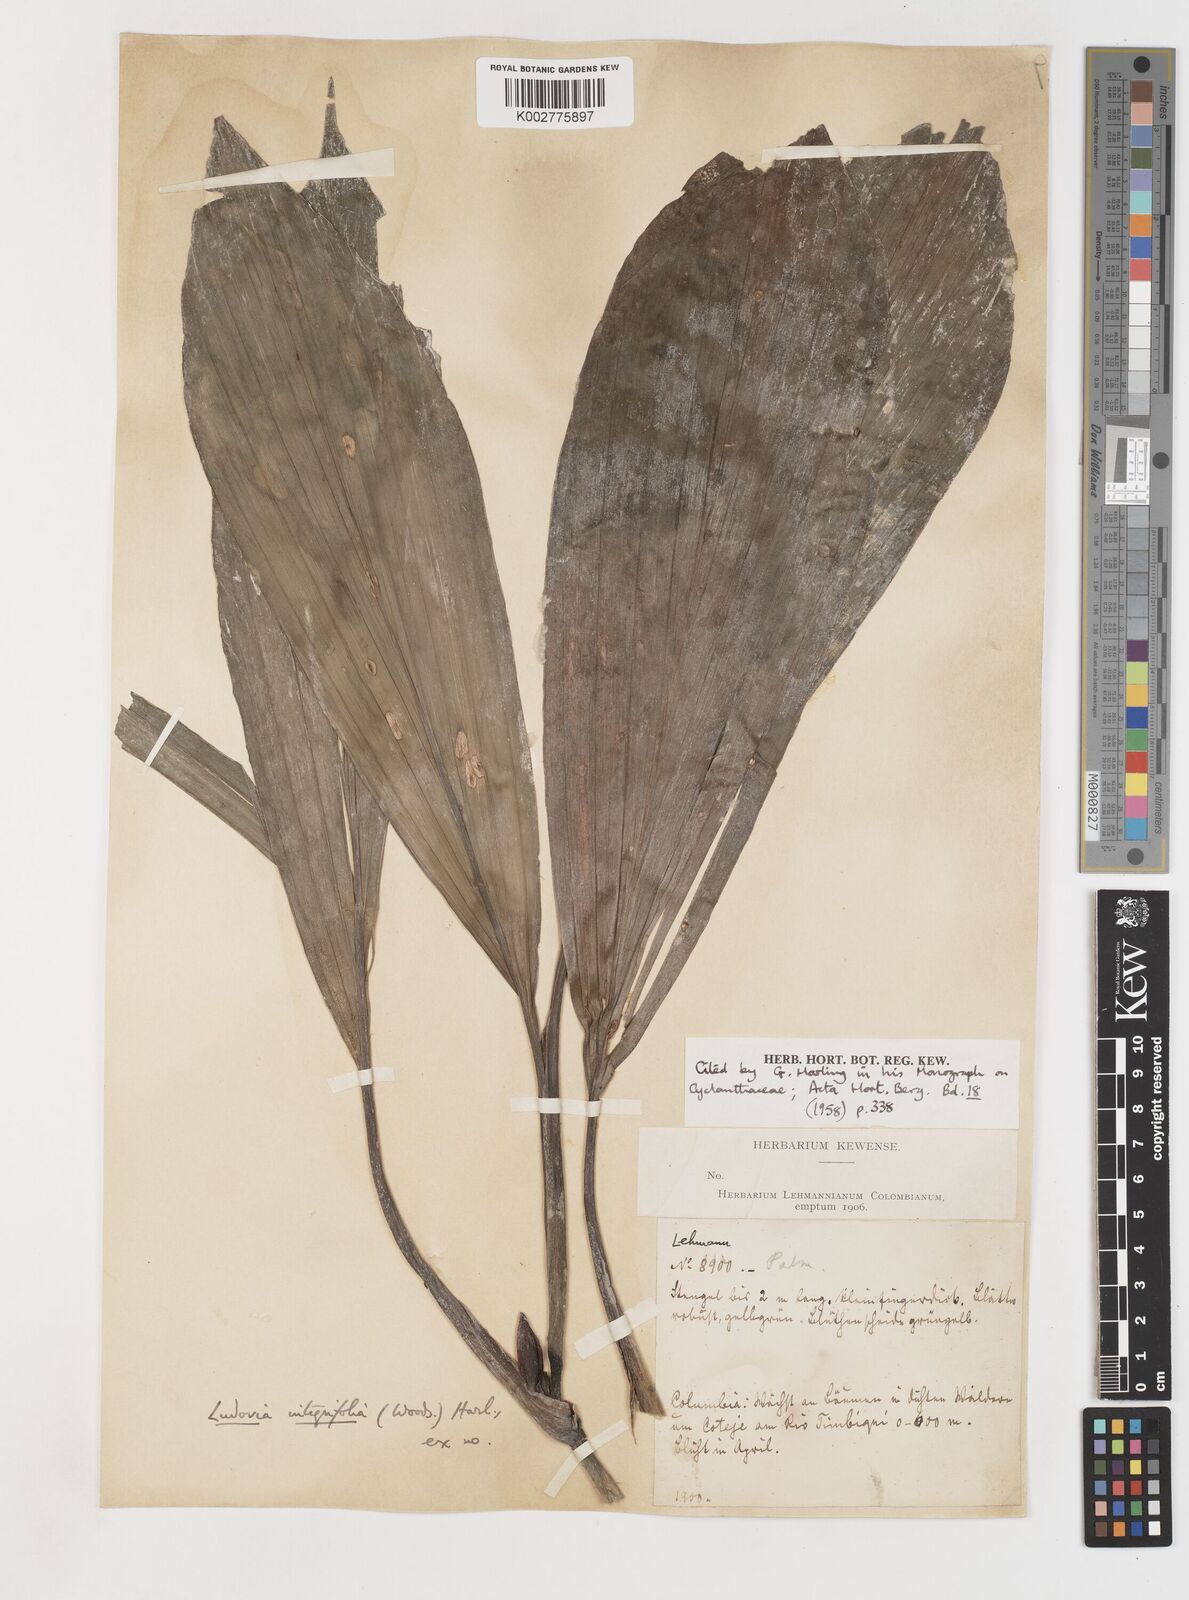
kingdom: Plantae
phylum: Tracheophyta
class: Liliopsida
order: Pandanales
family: Cyclanthaceae
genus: Ludovia
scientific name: Ludovia integrifolia
